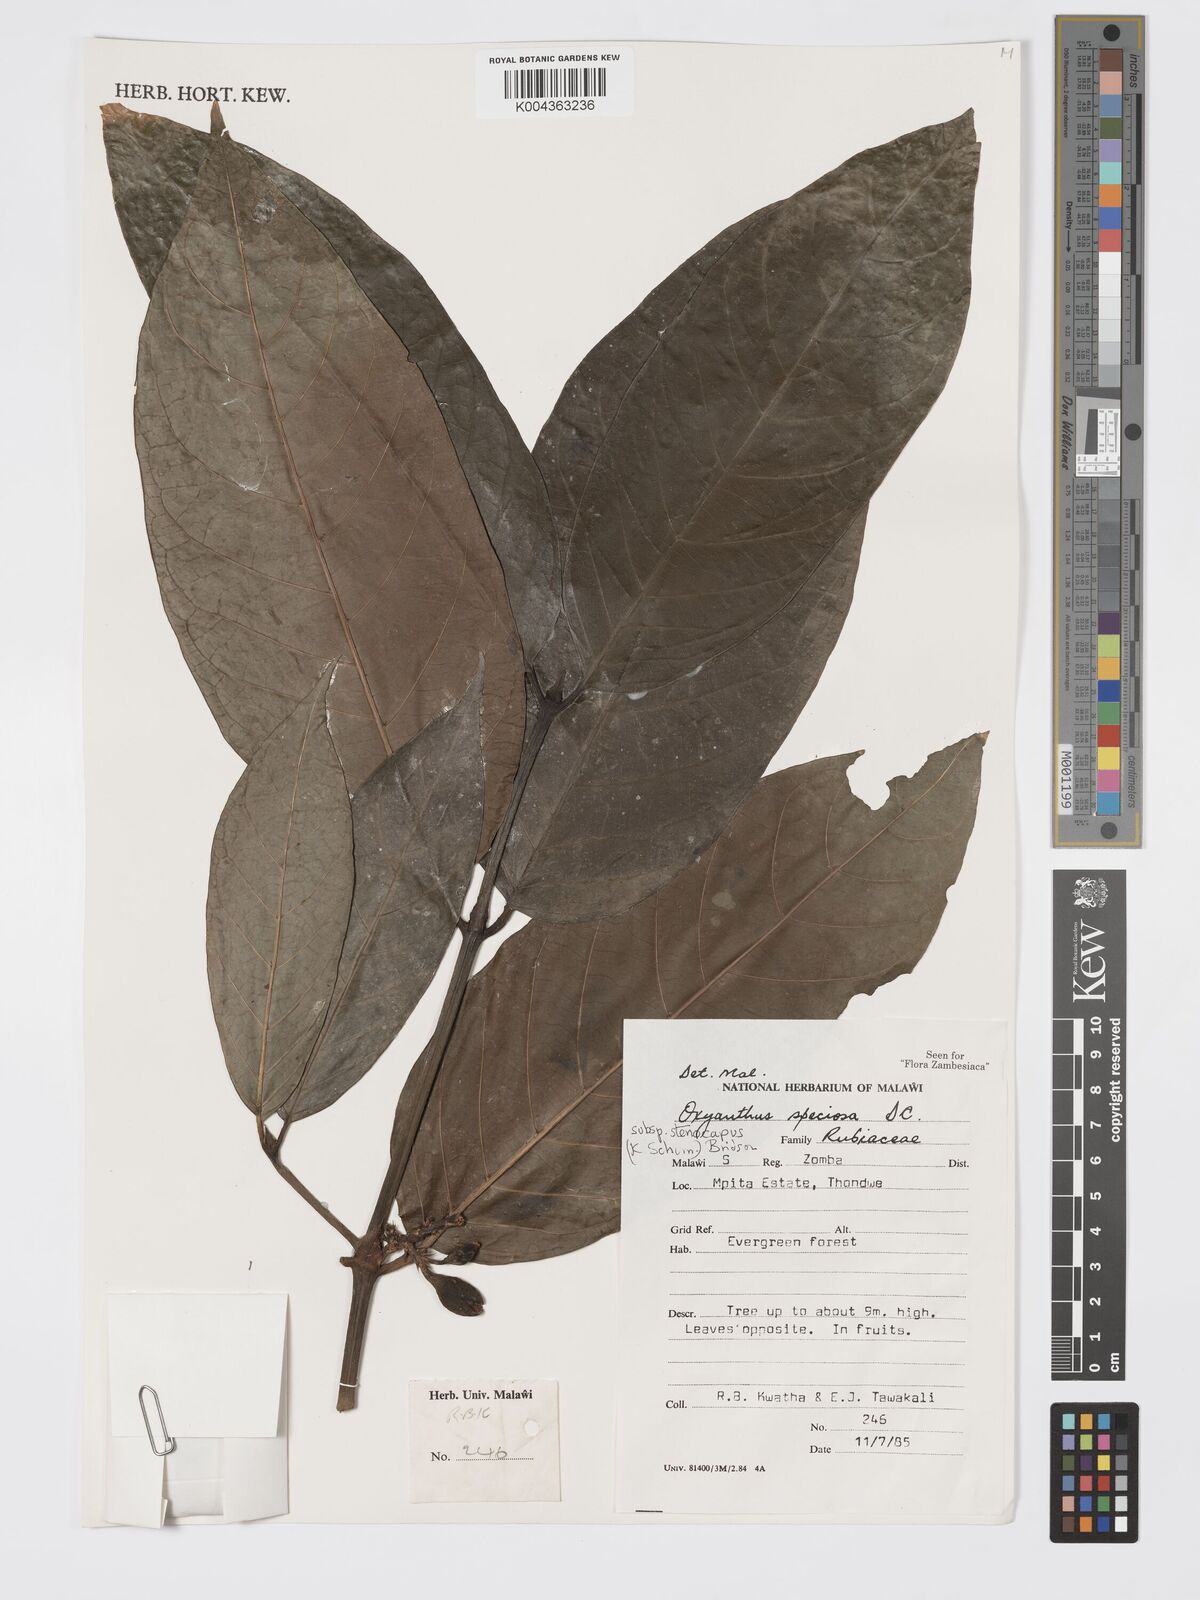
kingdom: Plantae
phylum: Tracheophyta
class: Magnoliopsida
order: Gentianales
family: Rubiaceae
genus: Oxyanthus
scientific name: Oxyanthus speciosus
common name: Whipstick loquat
